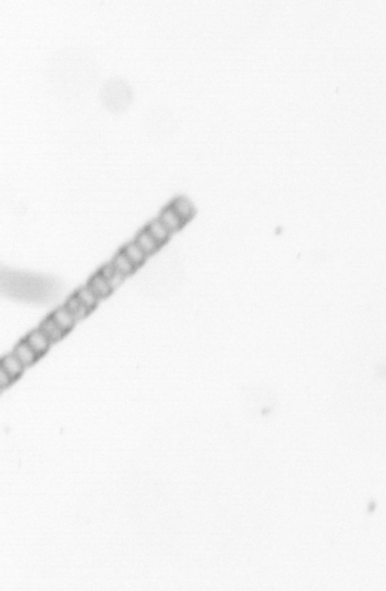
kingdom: Chromista
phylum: Ochrophyta
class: Bacillariophyceae
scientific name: Bacillariophyceae
